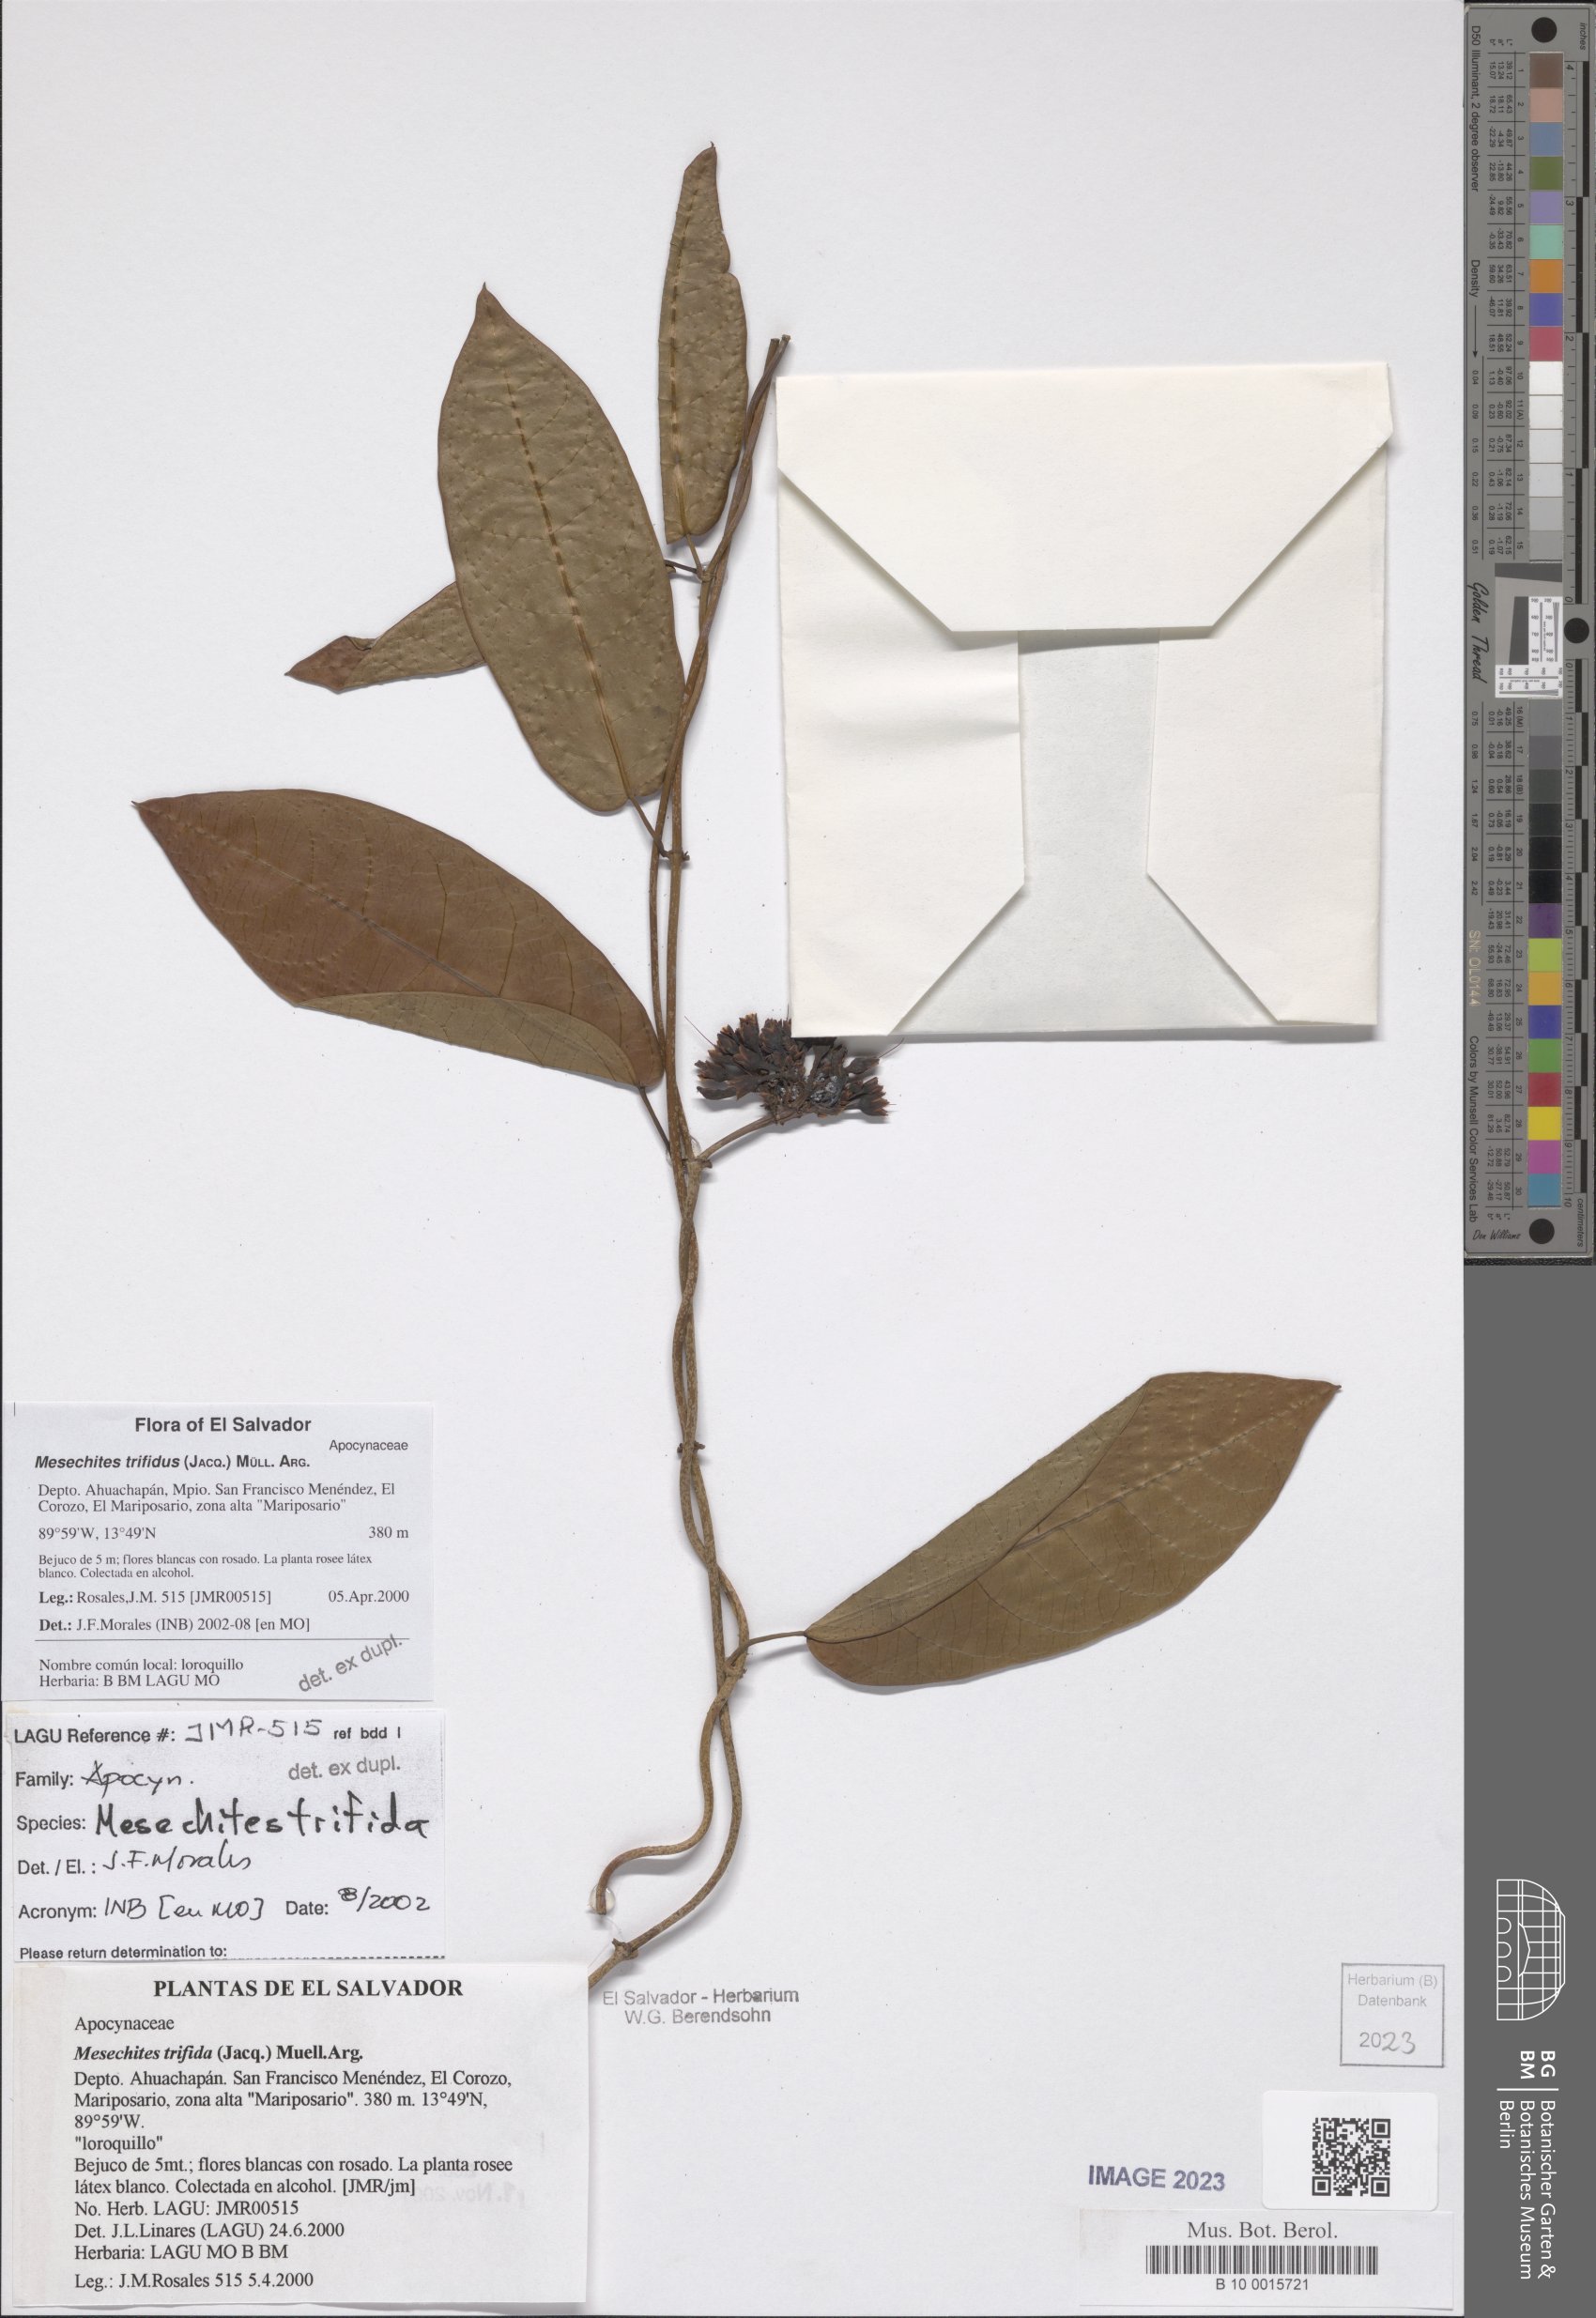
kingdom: Plantae
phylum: Tracheophyta
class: Magnoliopsida
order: Gentianales
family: Apocynaceae
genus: Mesechites
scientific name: Mesechites trifidus
